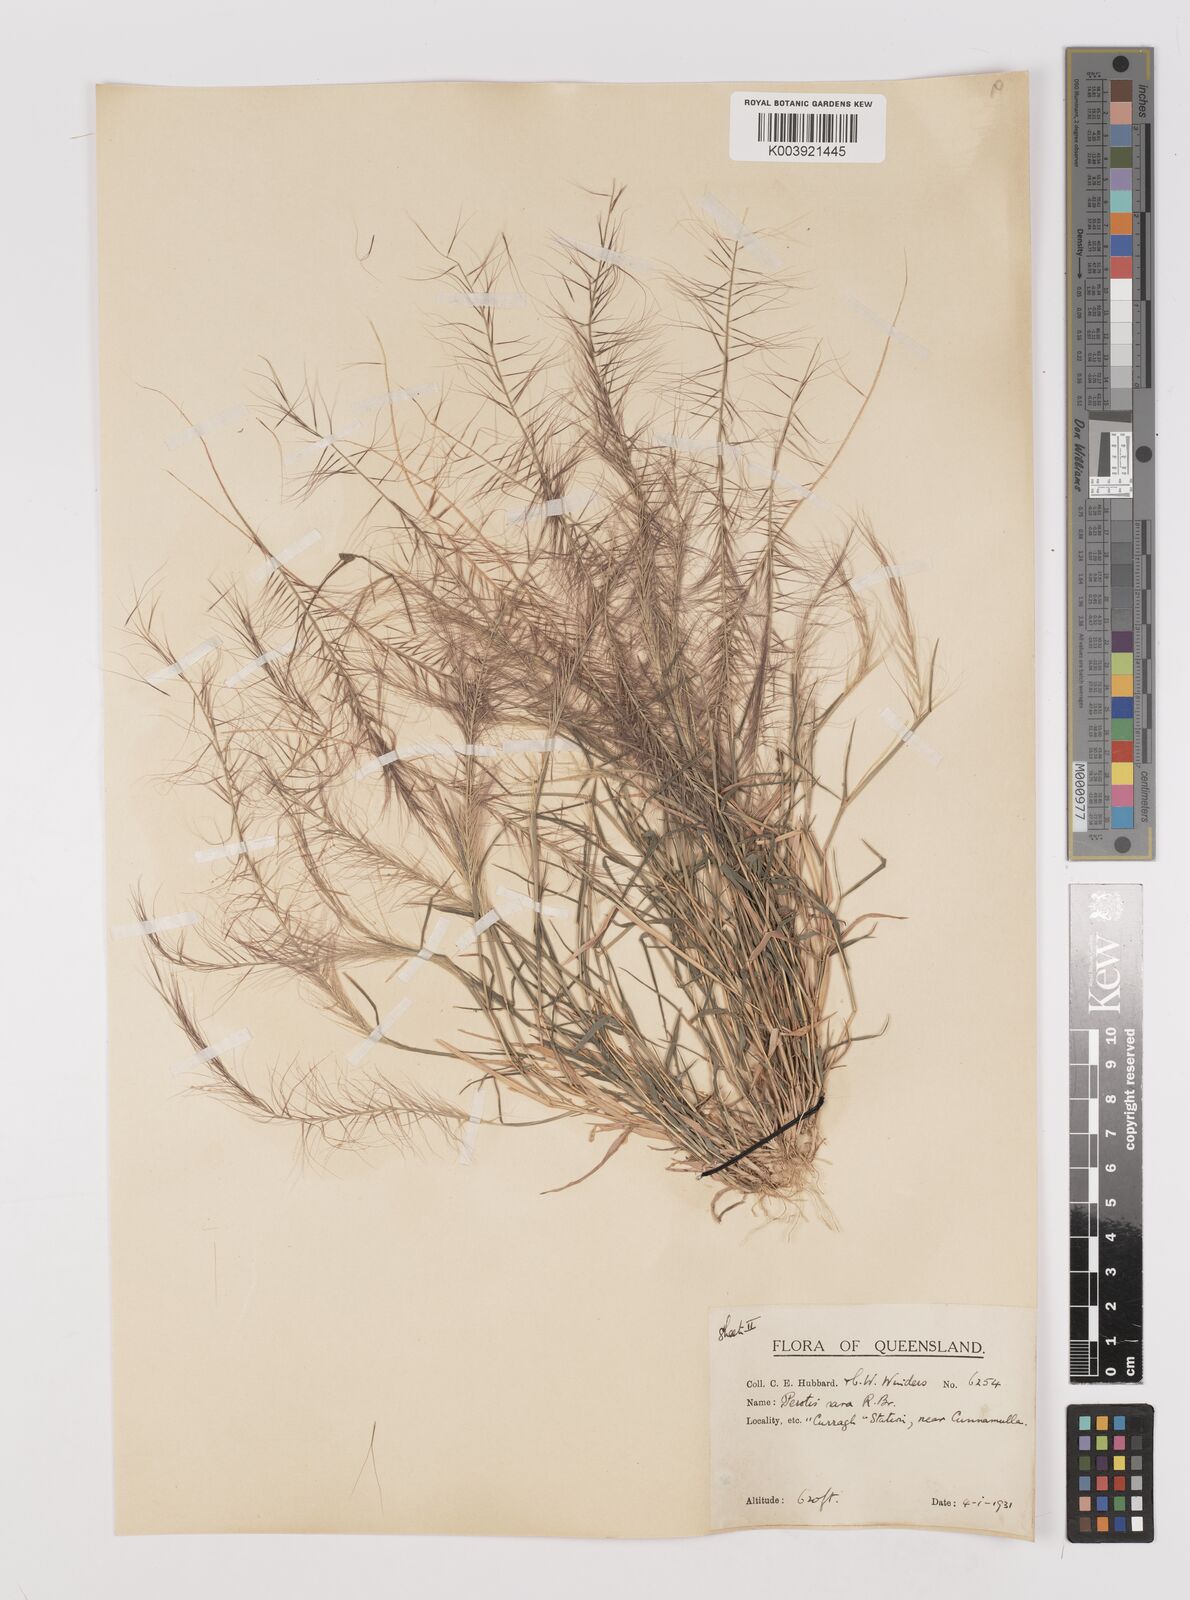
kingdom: Plantae
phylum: Tracheophyta
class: Liliopsida
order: Poales
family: Poaceae
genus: Perotis
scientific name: Perotis rara
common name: Comet grass
